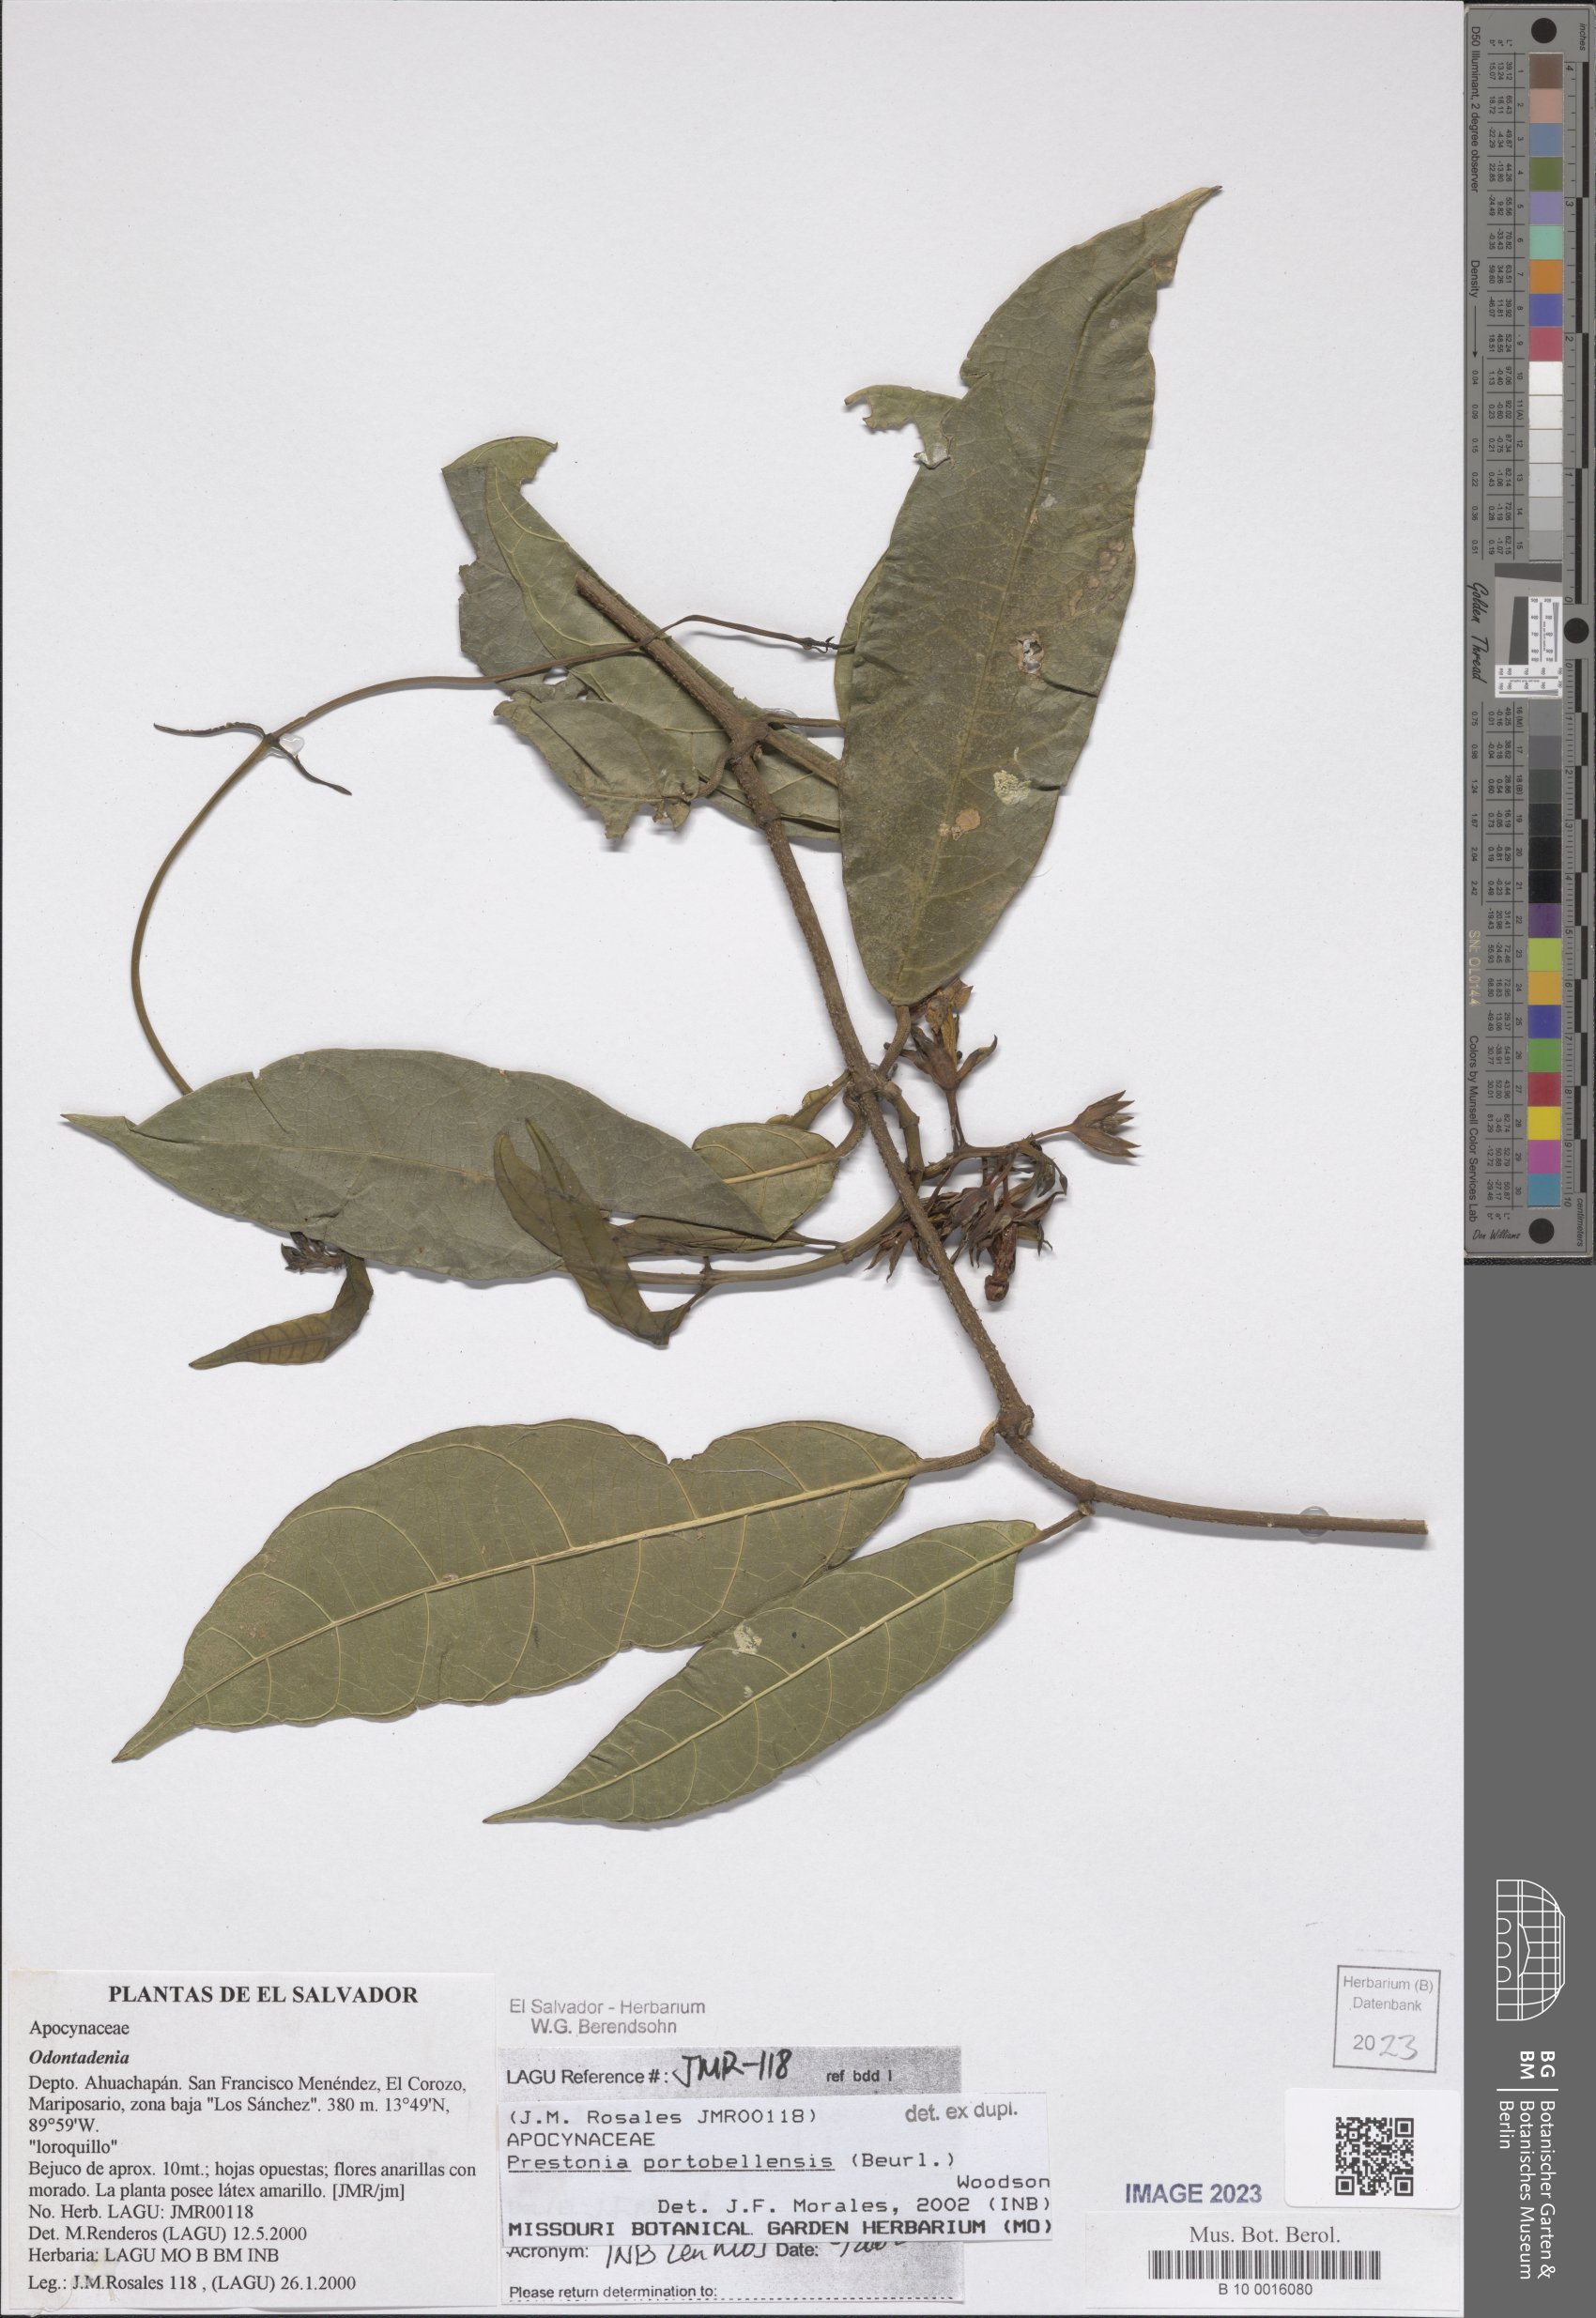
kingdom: Plantae
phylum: Tracheophyta
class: Magnoliopsida
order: Gentianales
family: Apocynaceae
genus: Prestonia
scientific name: Prestonia portobellensis
